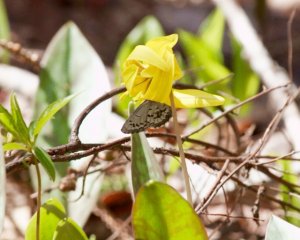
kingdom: Animalia
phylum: Arthropoda
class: Insecta
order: Lepidoptera
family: Lycaenidae
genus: Celastrina
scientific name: Celastrina lucia
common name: Northern Spring Azure
